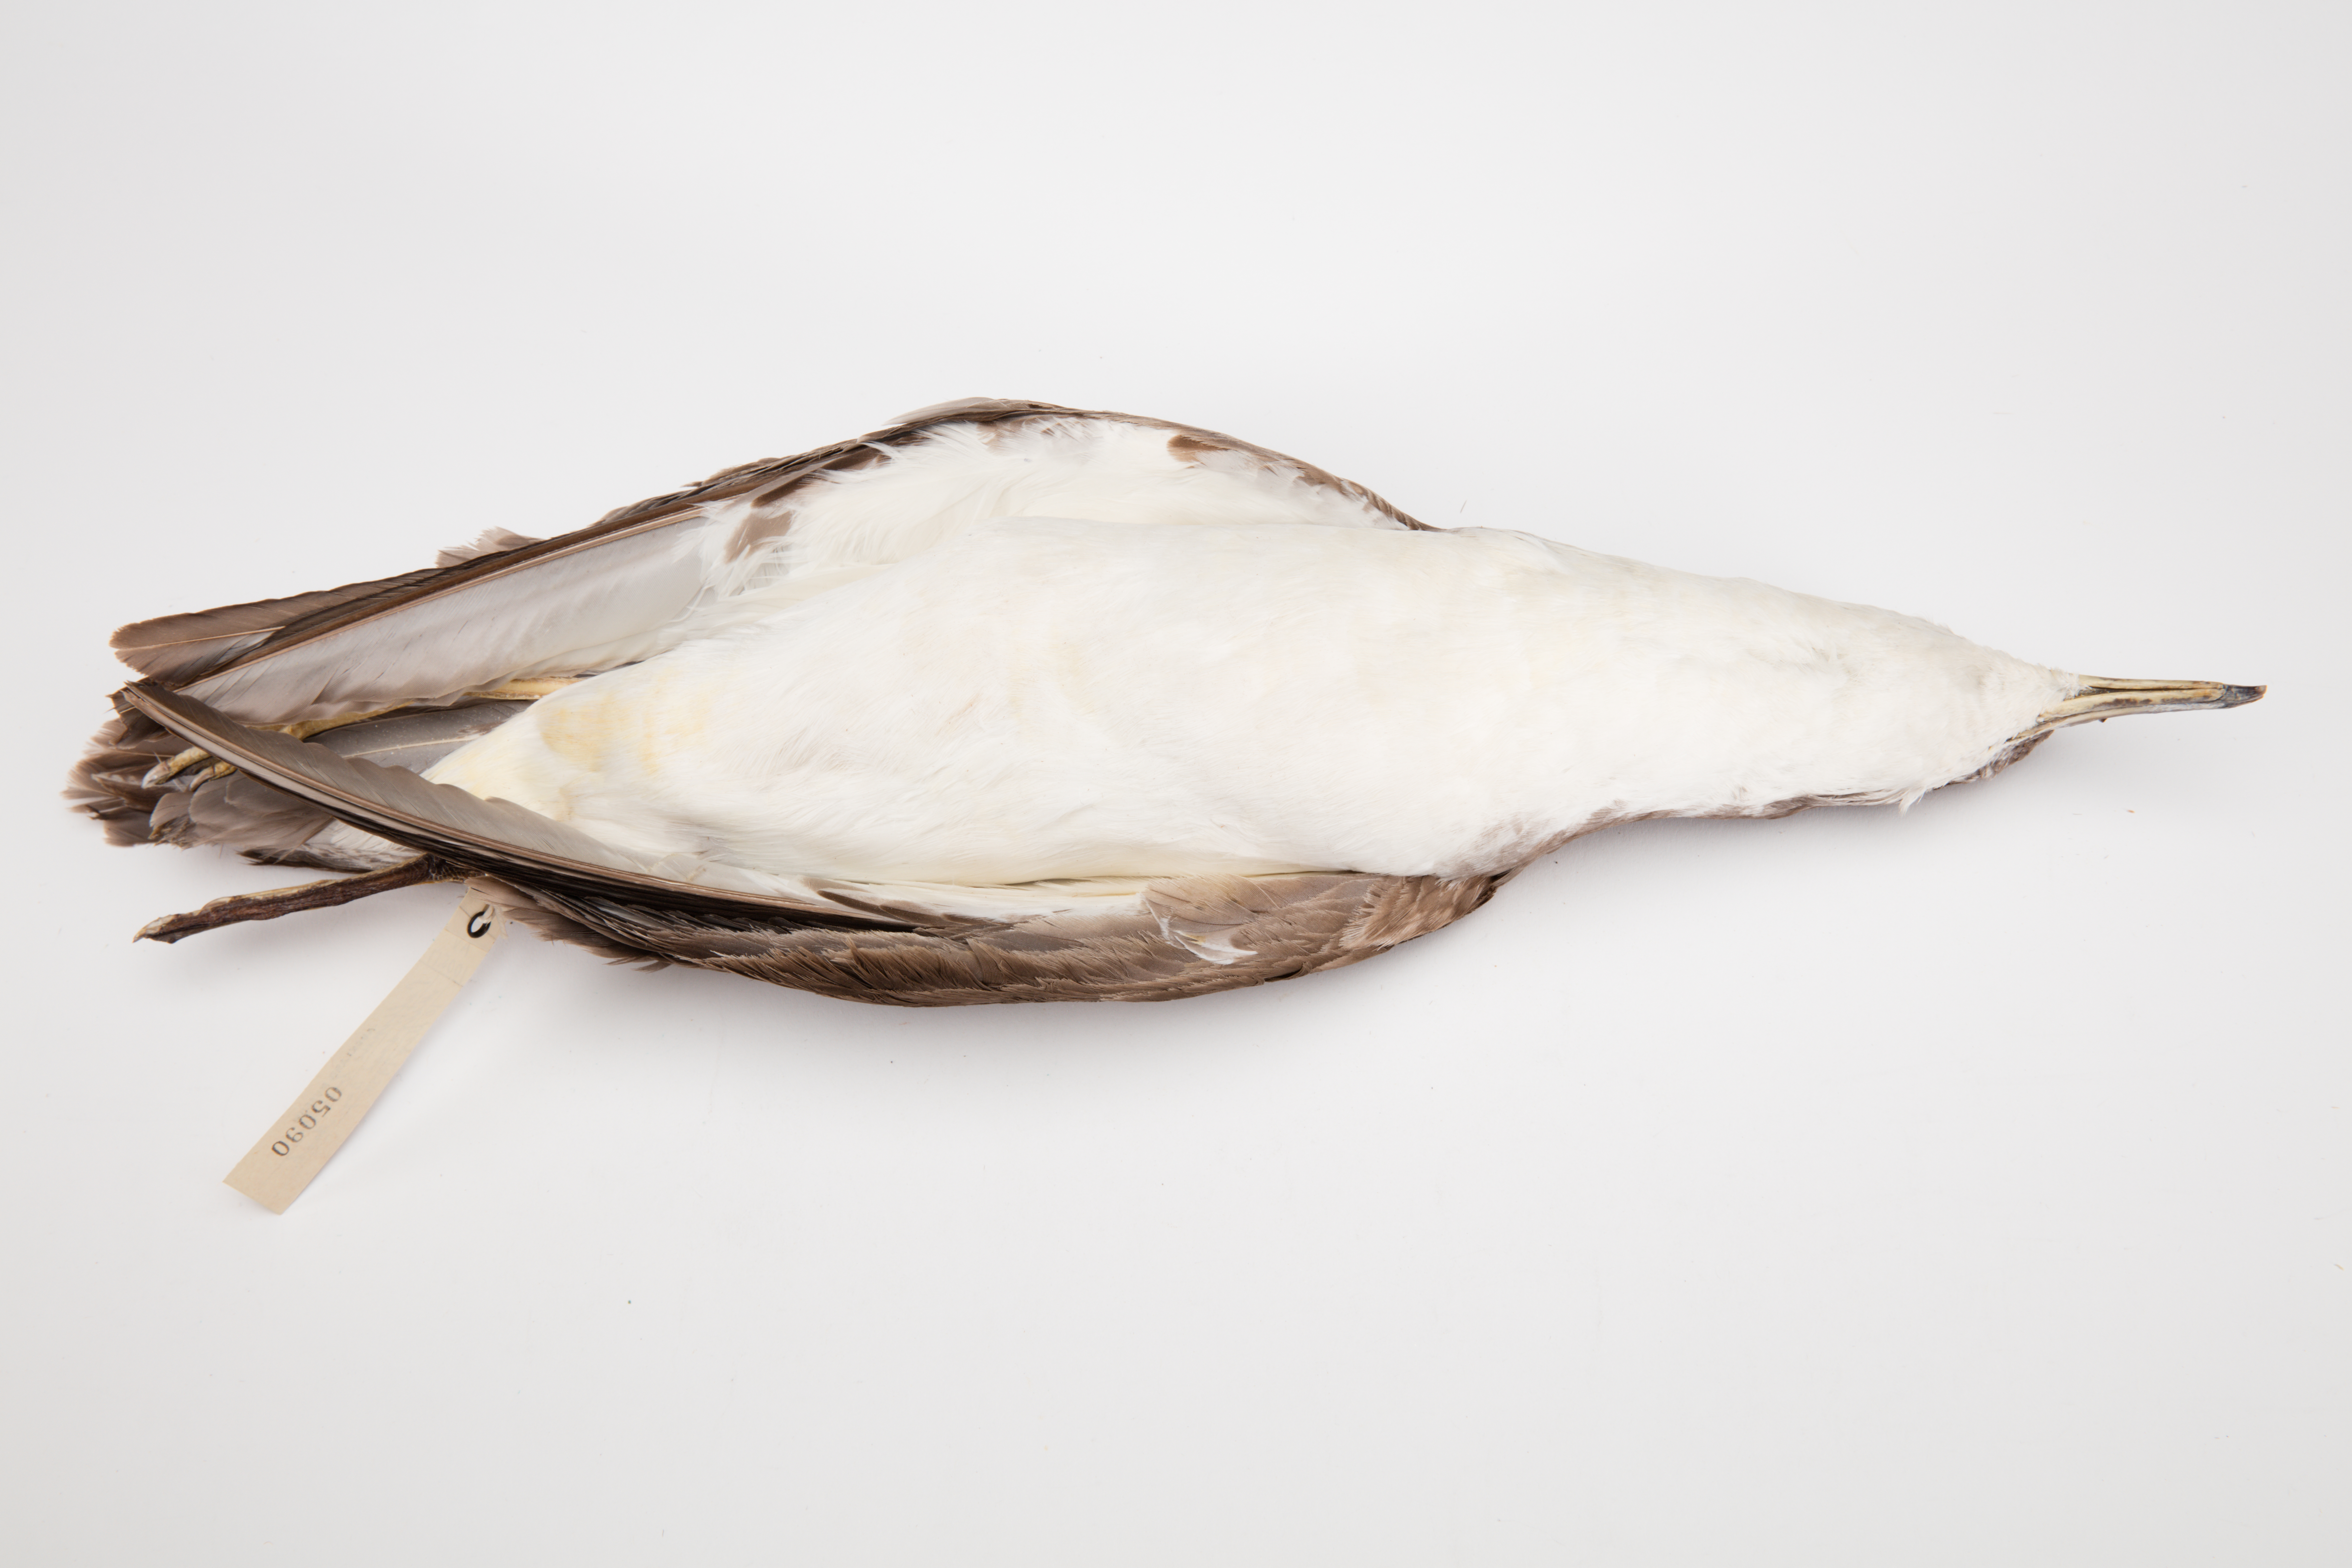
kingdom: Animalia
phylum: Chordata
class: Aves
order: Procellariiformes
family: Procellariidae
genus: Ardenna
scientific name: Ardenna
